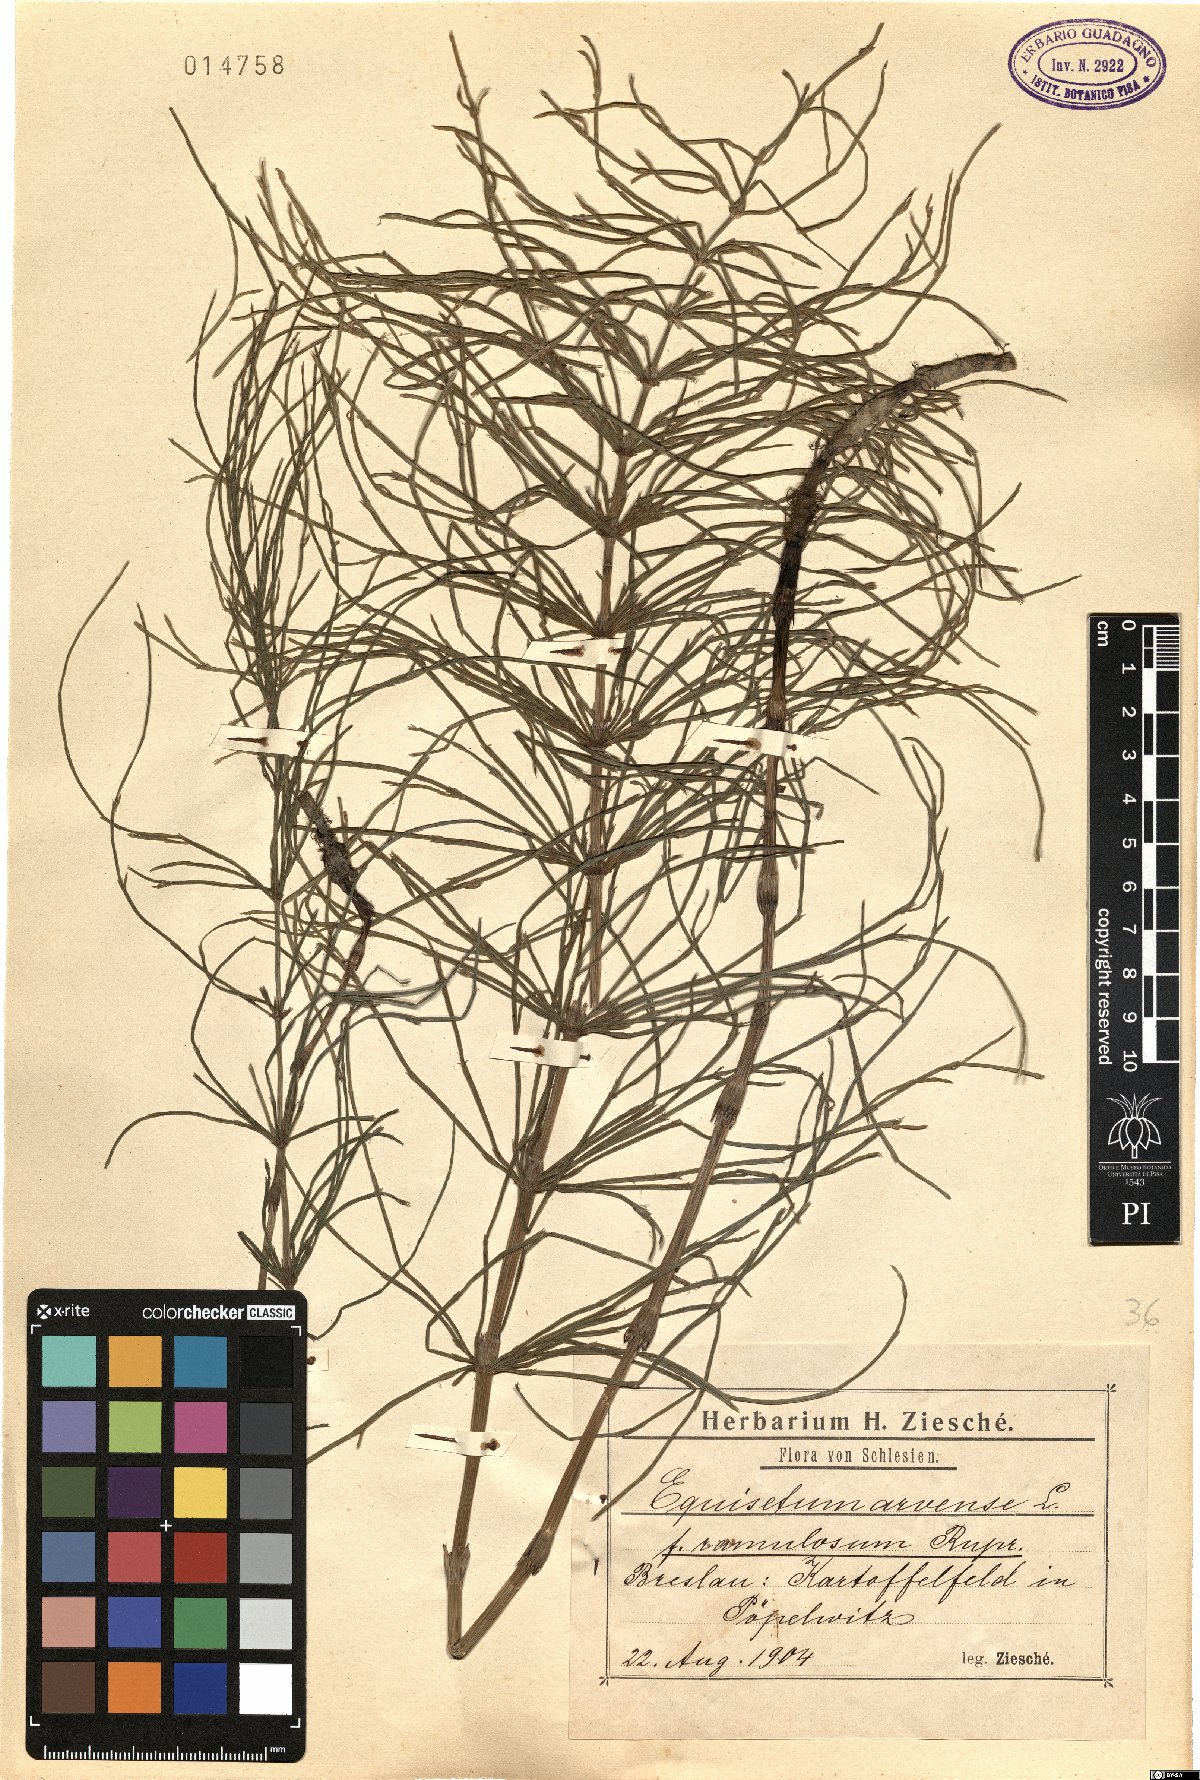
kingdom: Plantae
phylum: Tracheophyta
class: Polypodiopsida
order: Equisetales
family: Equisetaceae
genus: Equisetum
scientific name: Equisetum arvense
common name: Field horsetail
